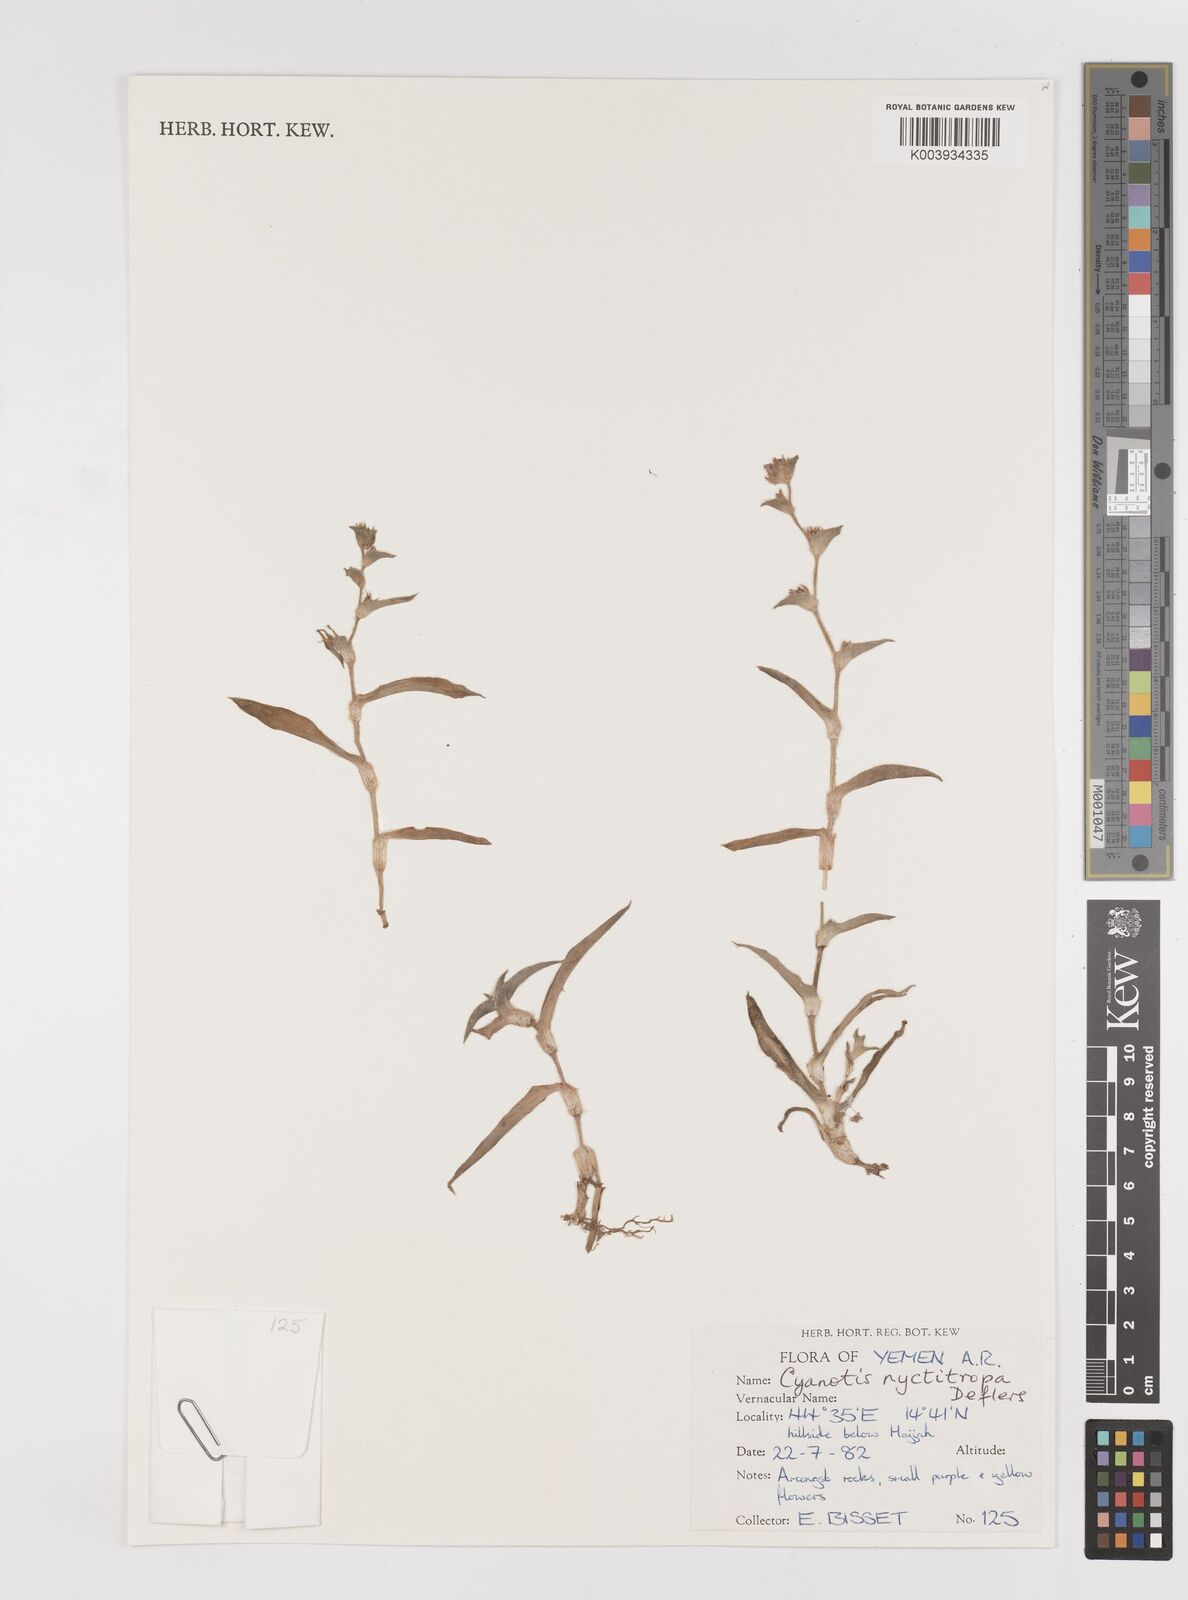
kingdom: Plantae
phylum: Tracheophyta
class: Liliopsida
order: Commelinales
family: Commelinaceae
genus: Cyanotis
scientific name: Cyanotis nyctitropa
